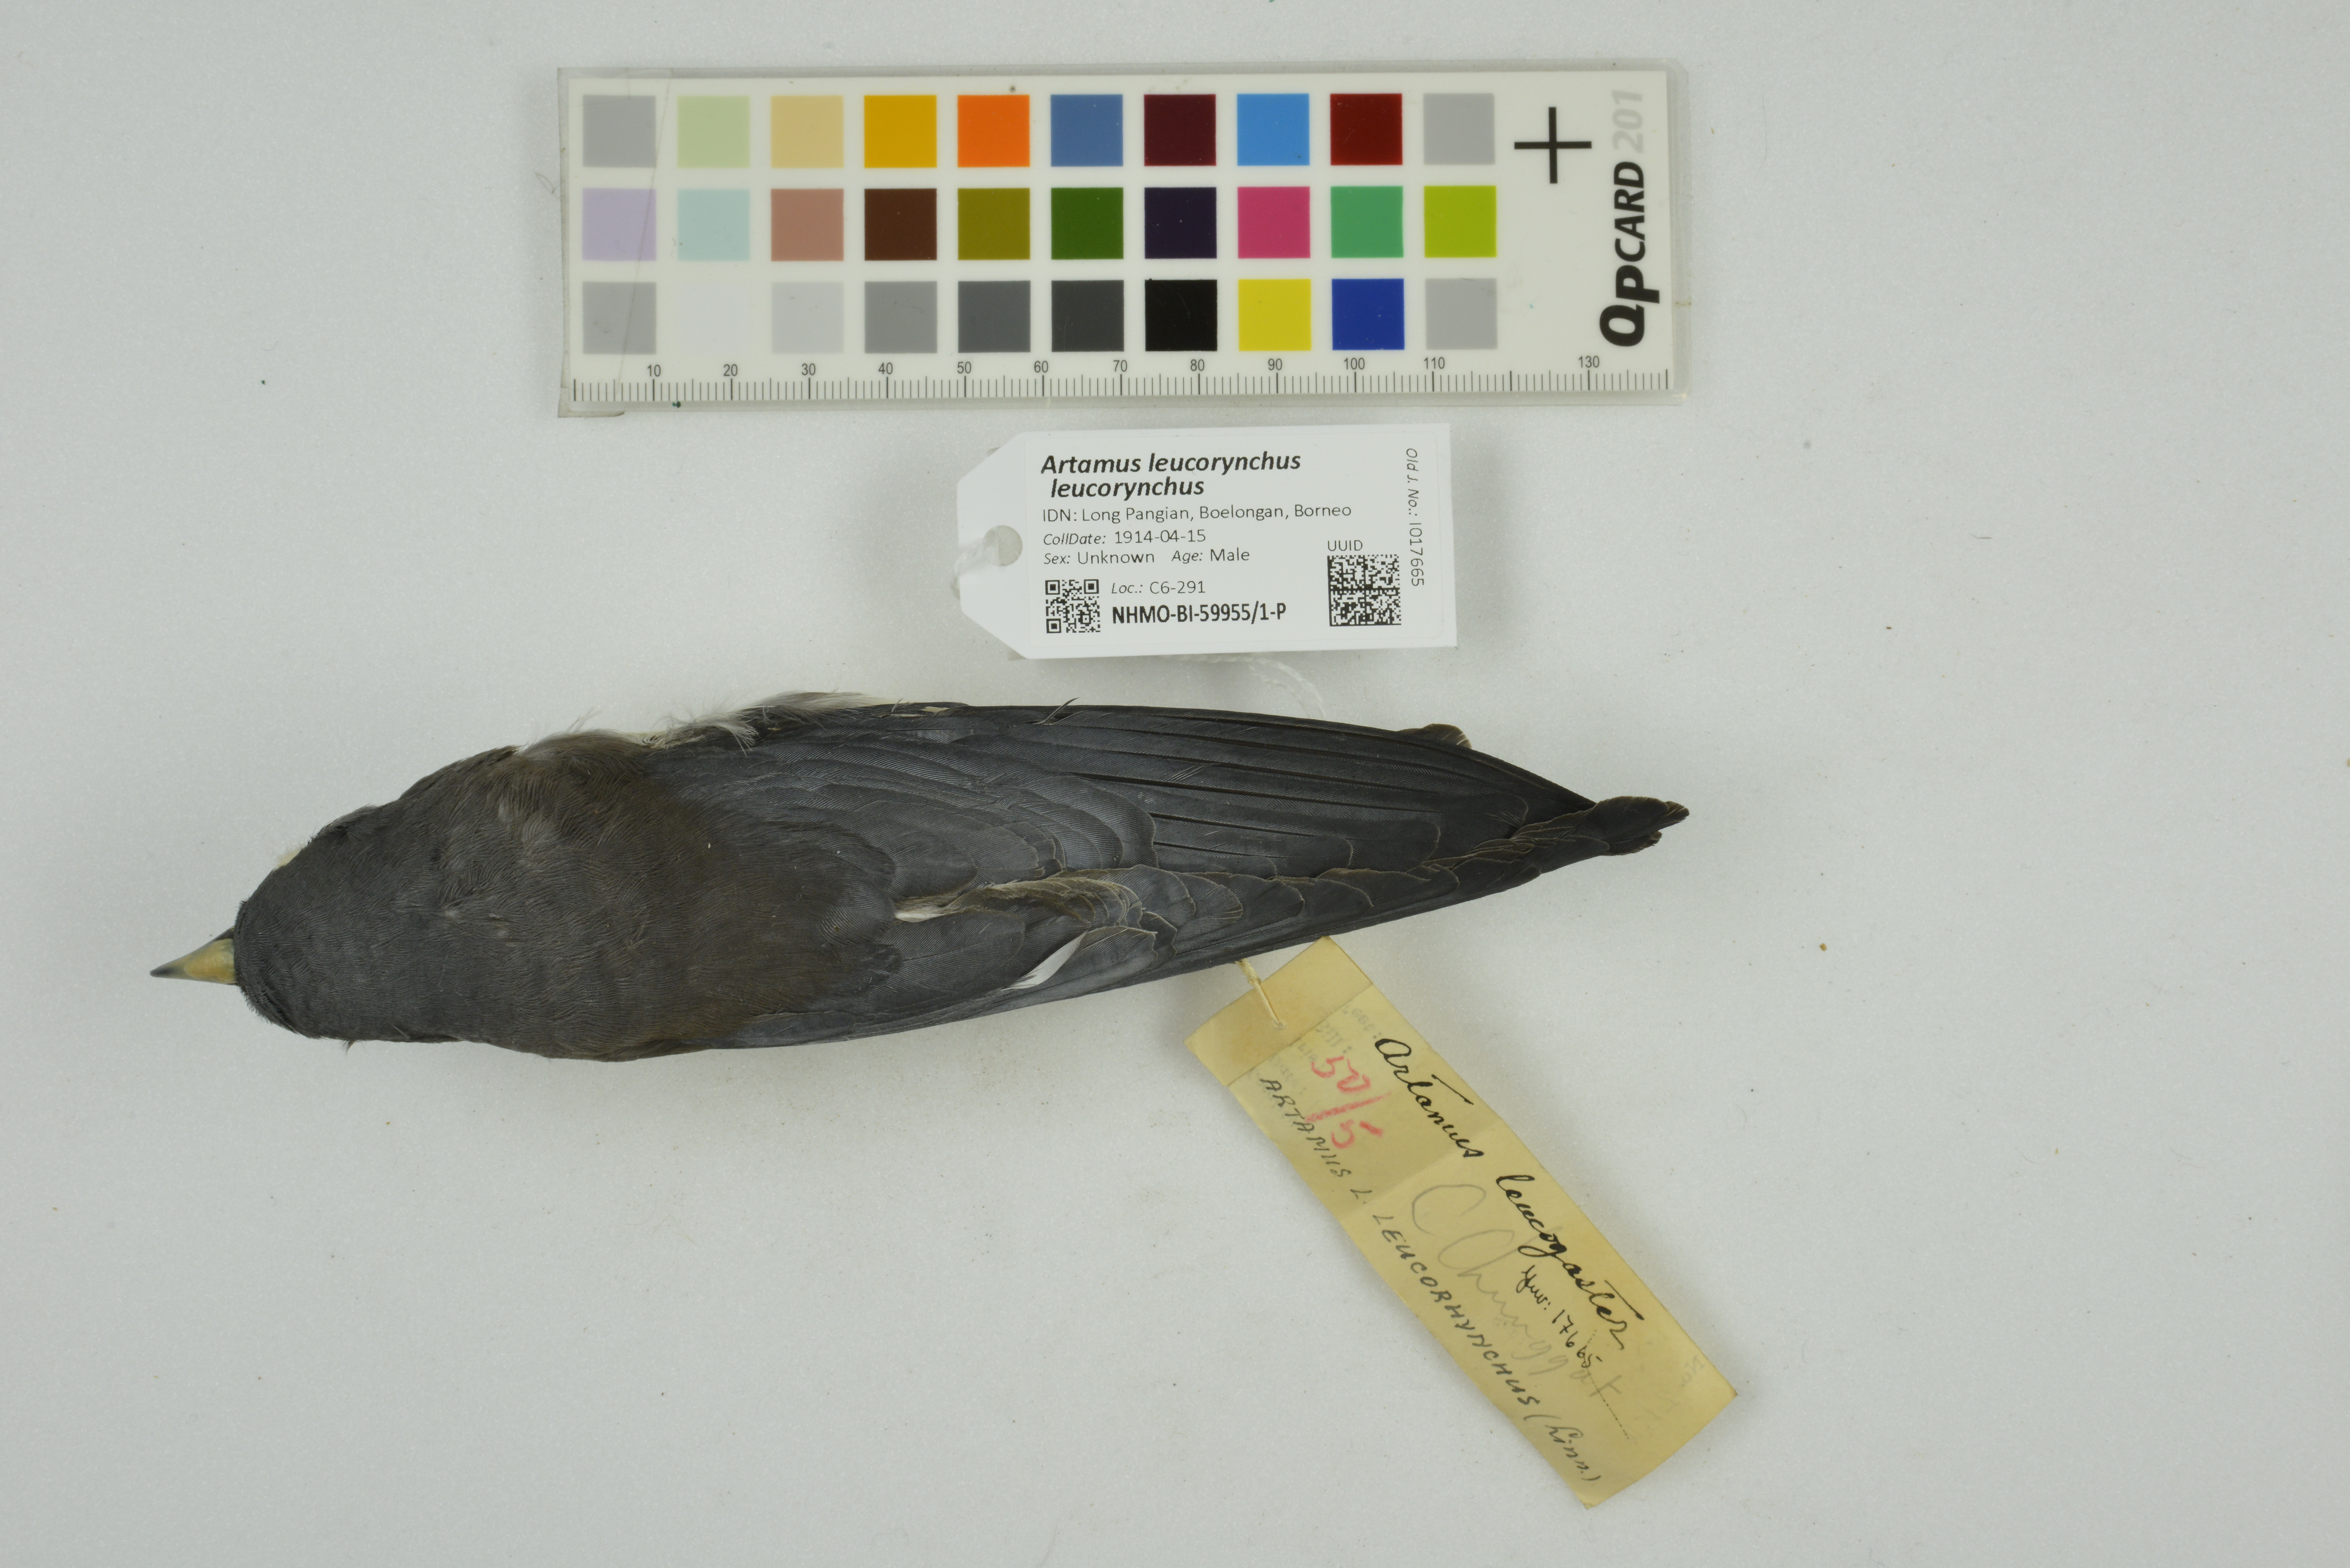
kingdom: Animalia
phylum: Chordata
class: Aves
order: Passeriformes
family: Artamidae
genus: Artamus
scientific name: Artamus leucoryn
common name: White-breasted woodswallow
